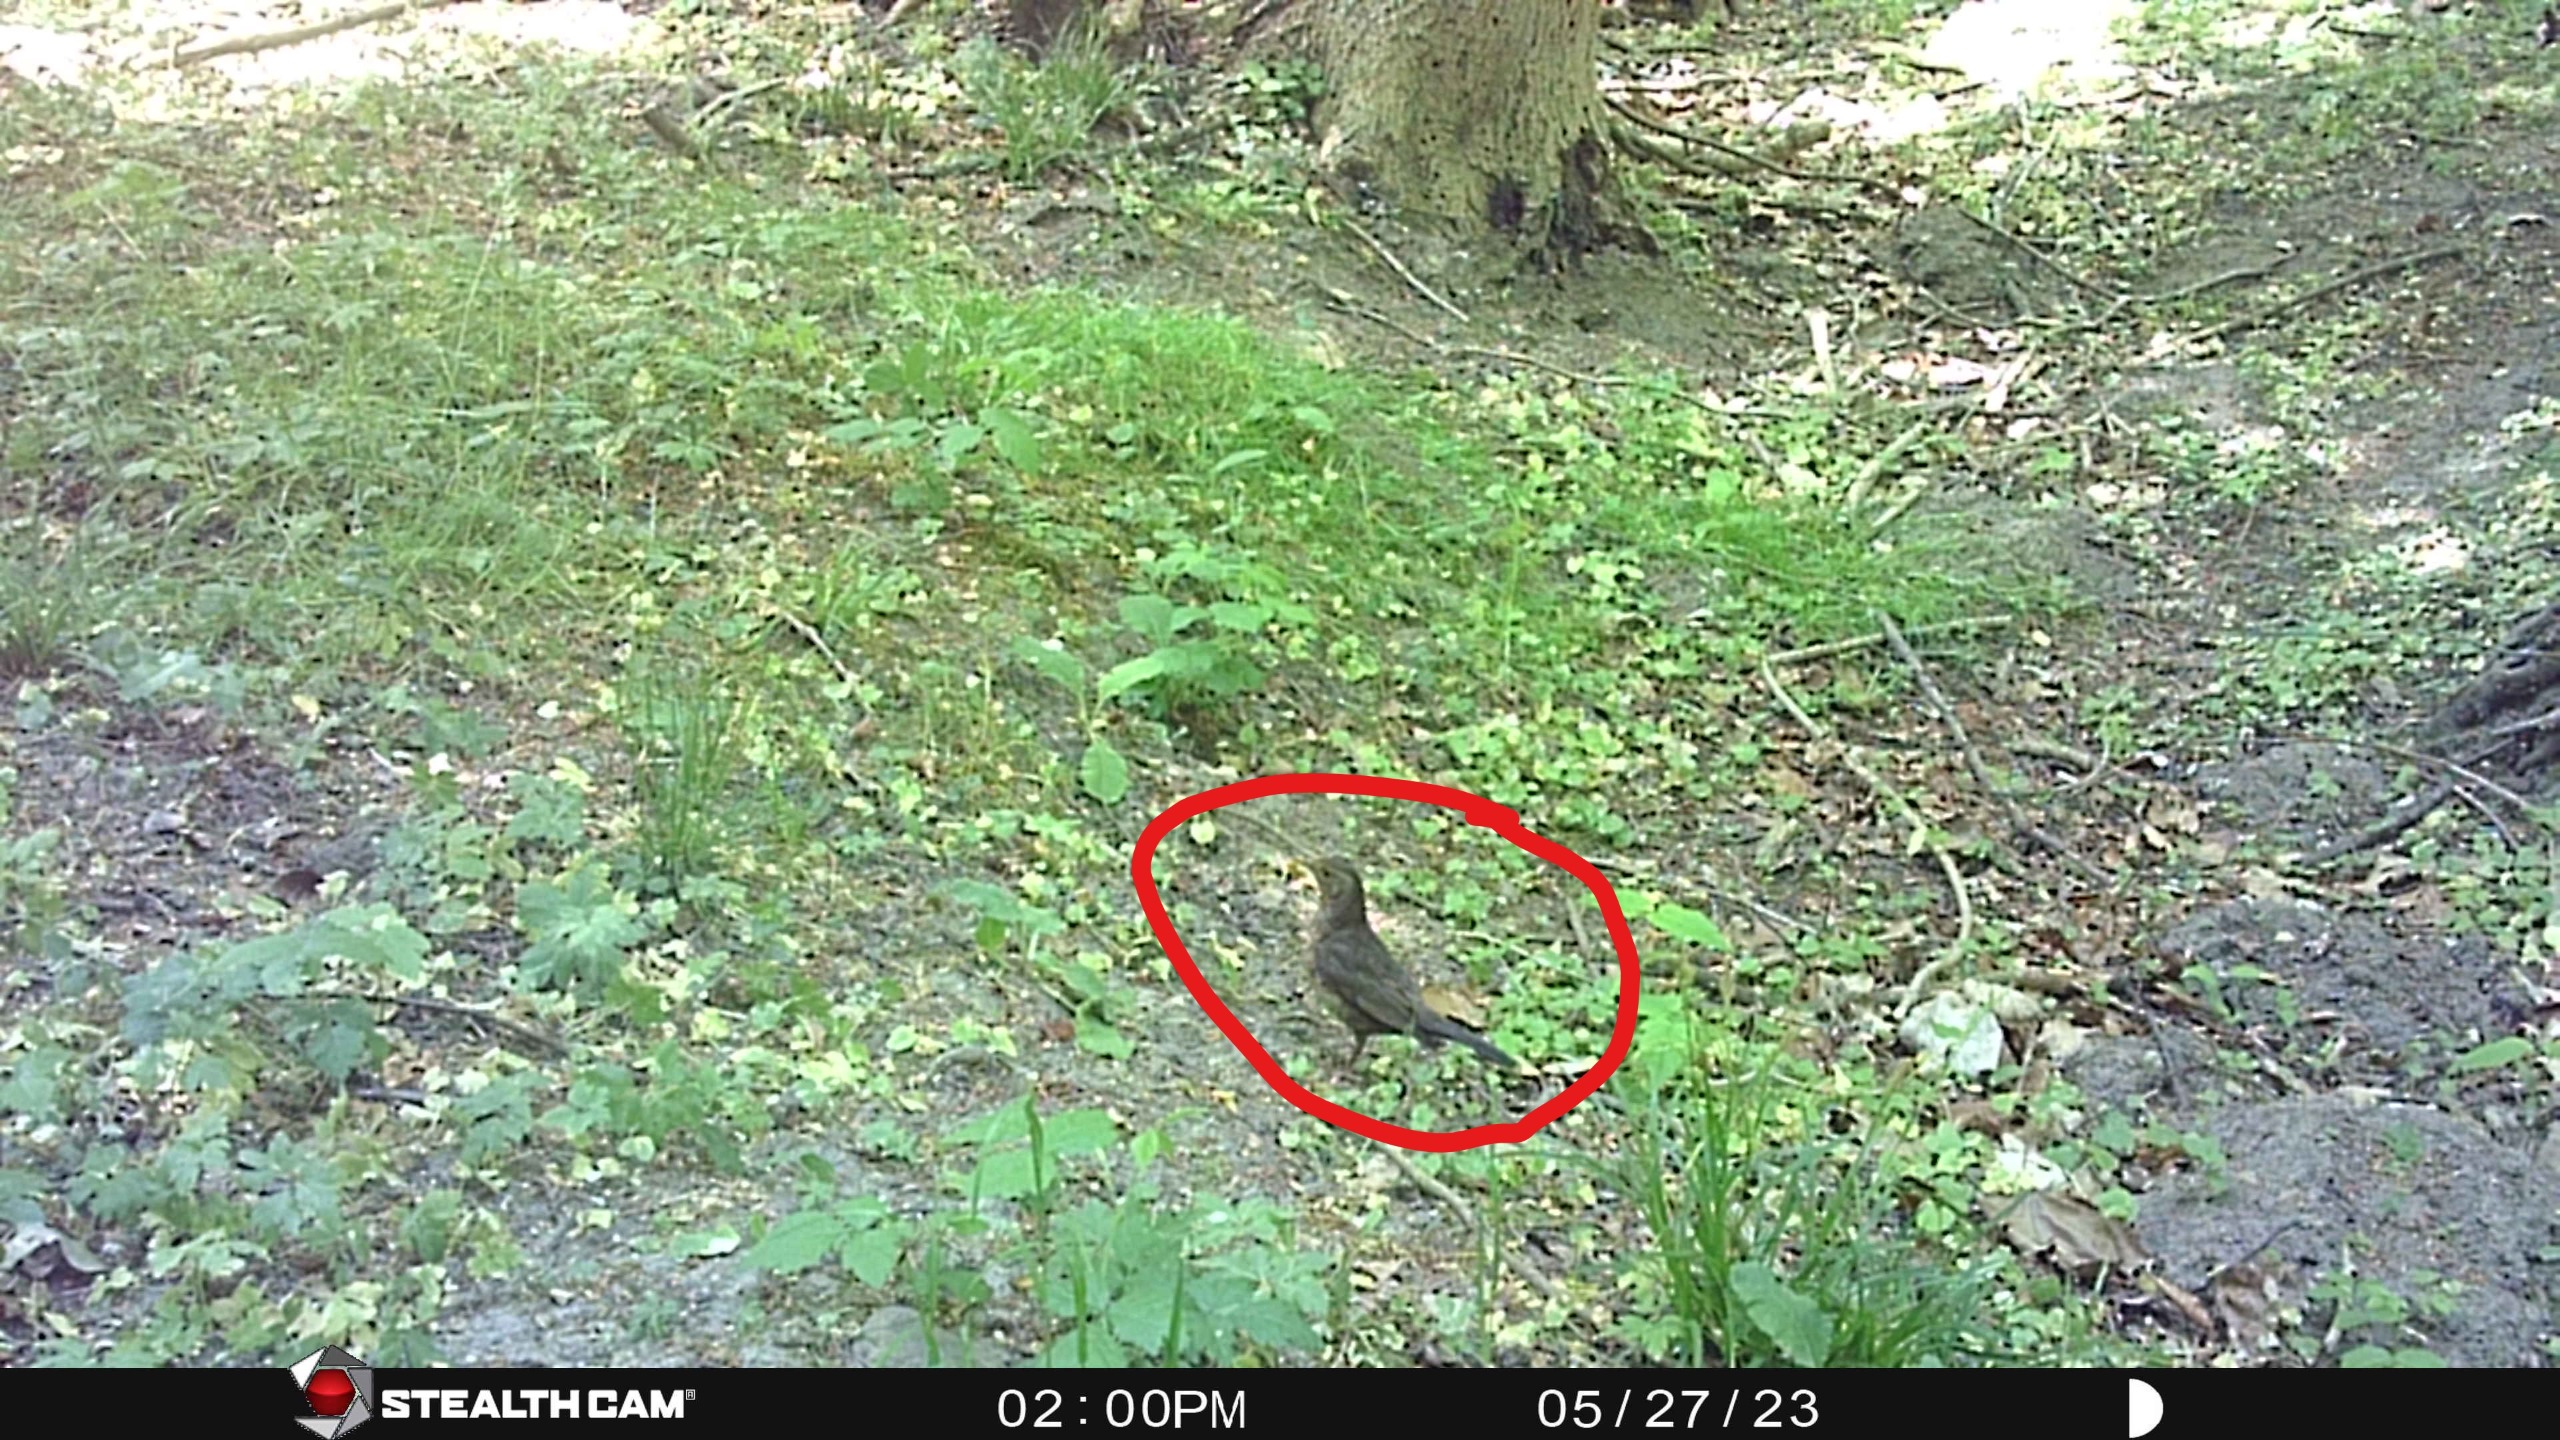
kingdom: Animalia
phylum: Chordata
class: Aves
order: Passeriformes
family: Turdidae
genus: Turdus
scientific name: Turdus merula
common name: Solsort
